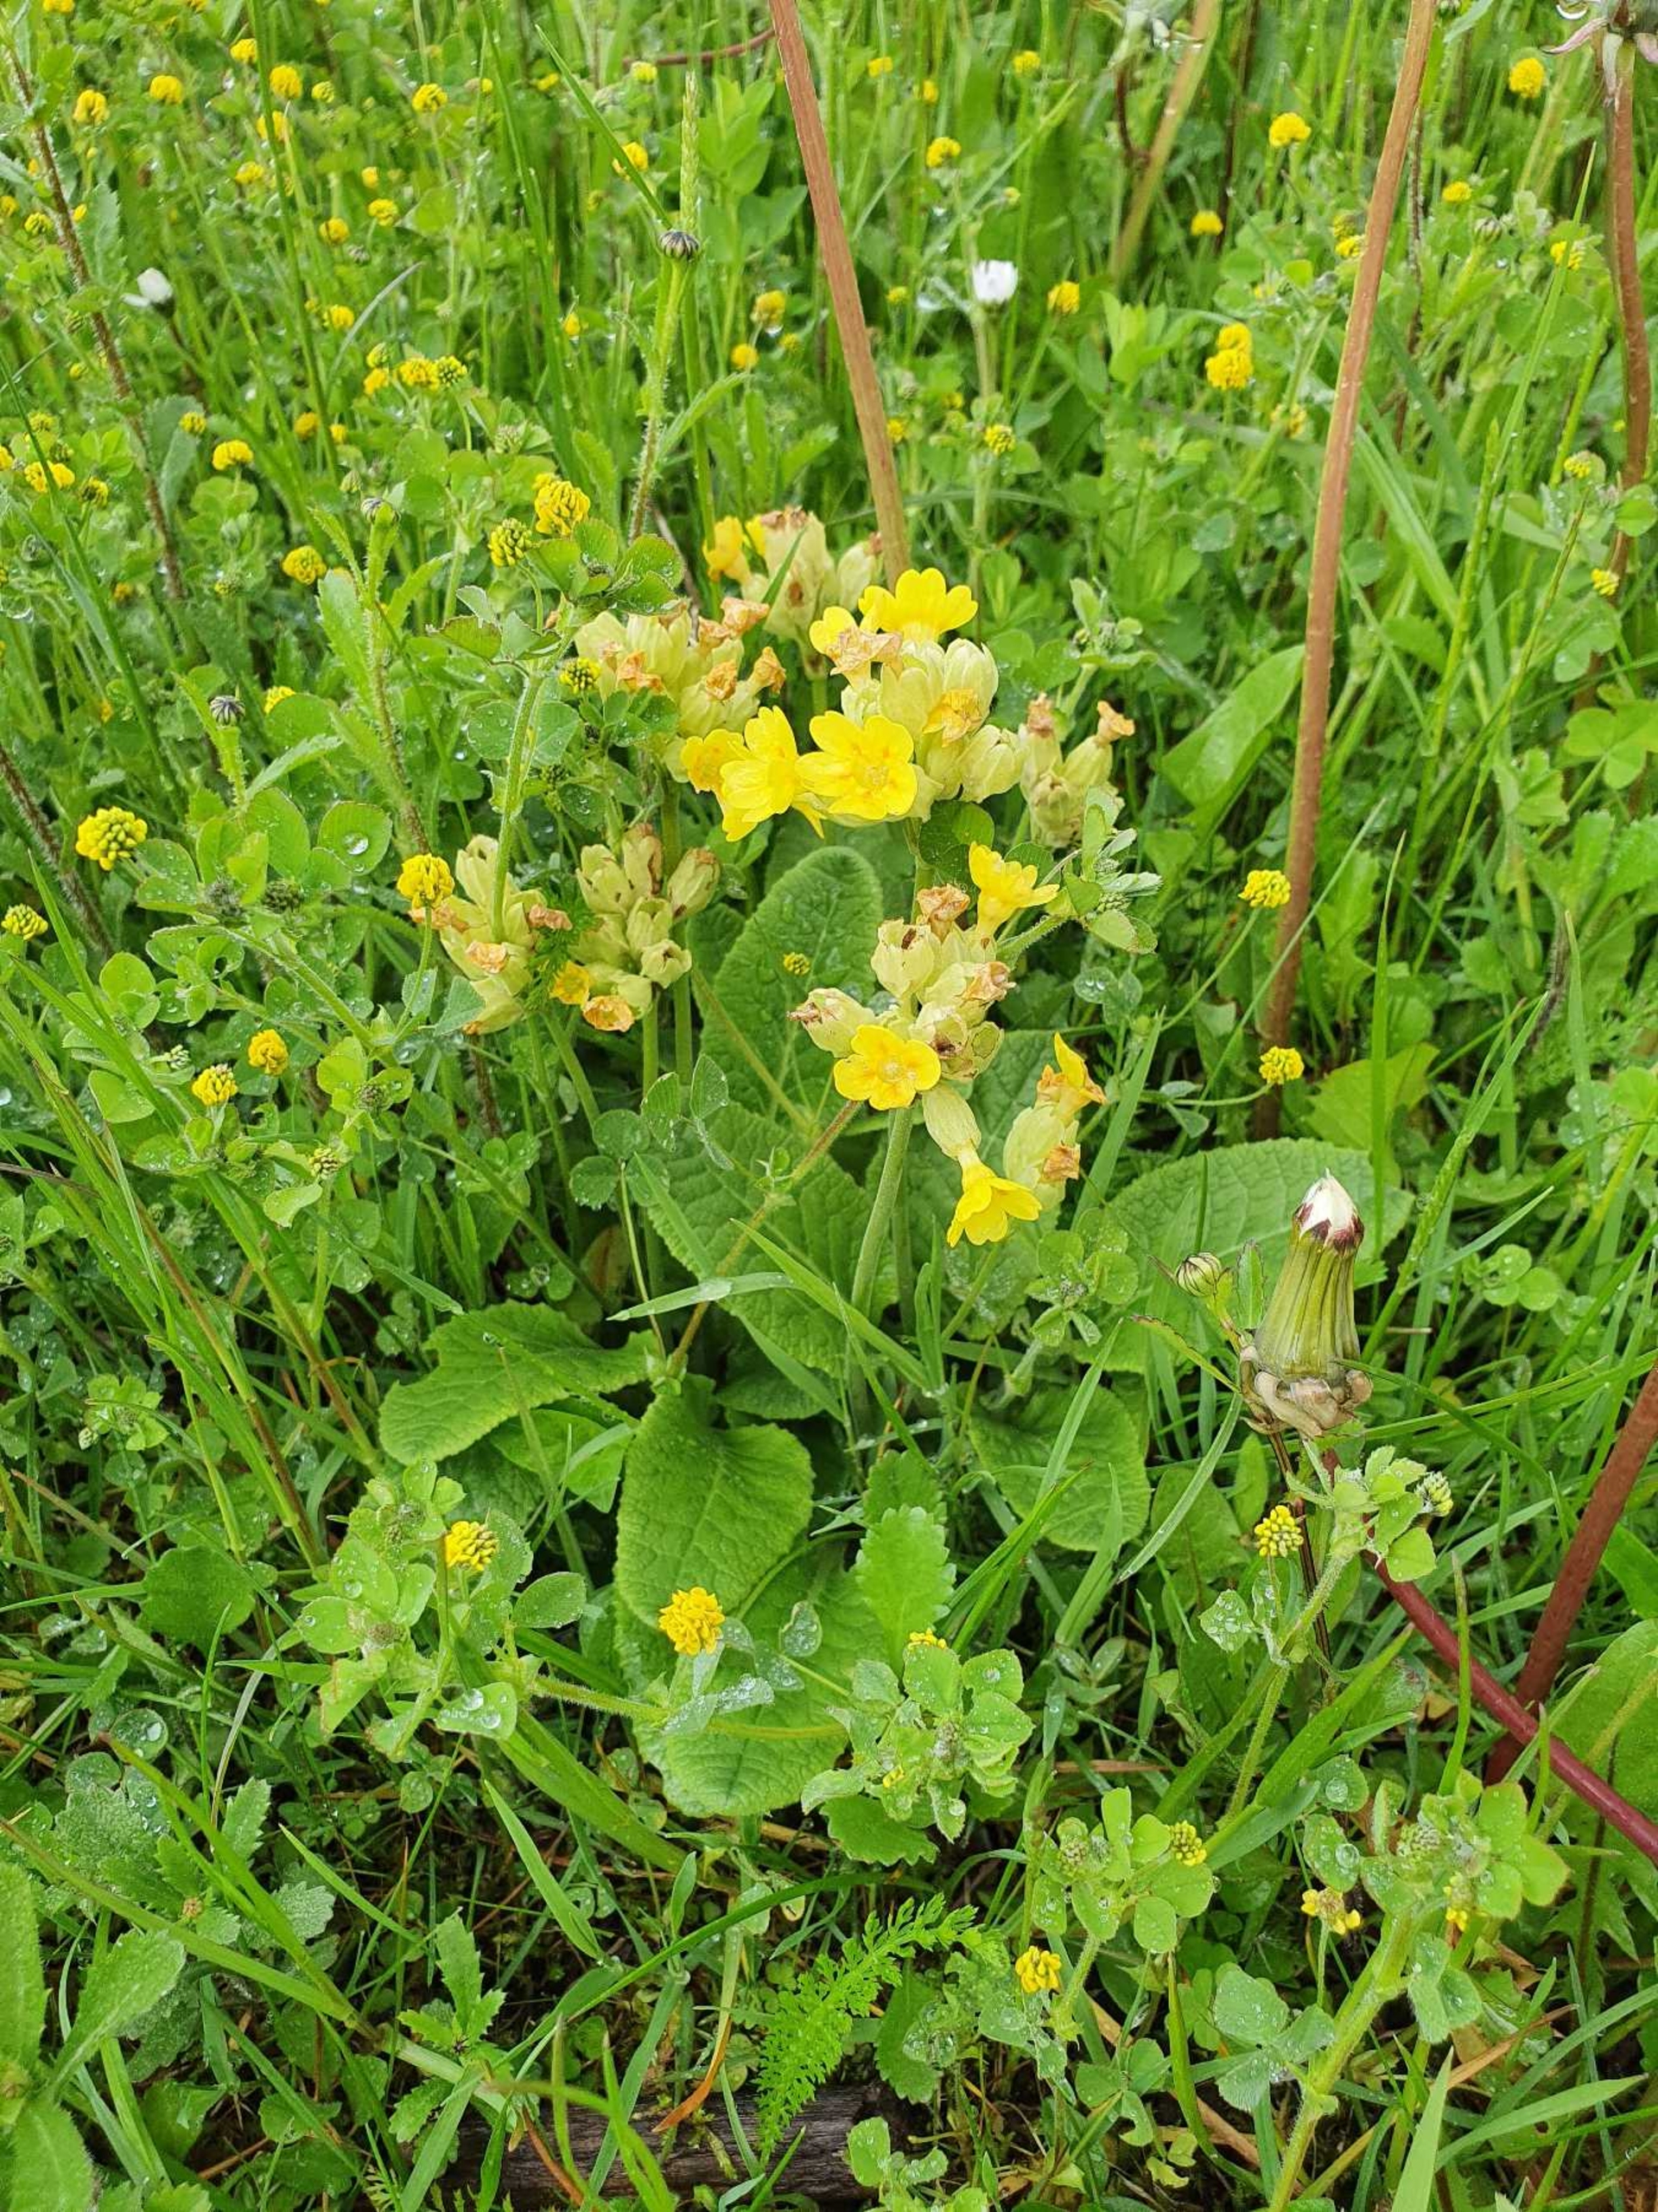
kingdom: Plantae
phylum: Tracheophyta
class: Magnoliopsida
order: Ericales
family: Primulaceae
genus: Primula
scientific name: Primula veris
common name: Hulkravet kodriver
